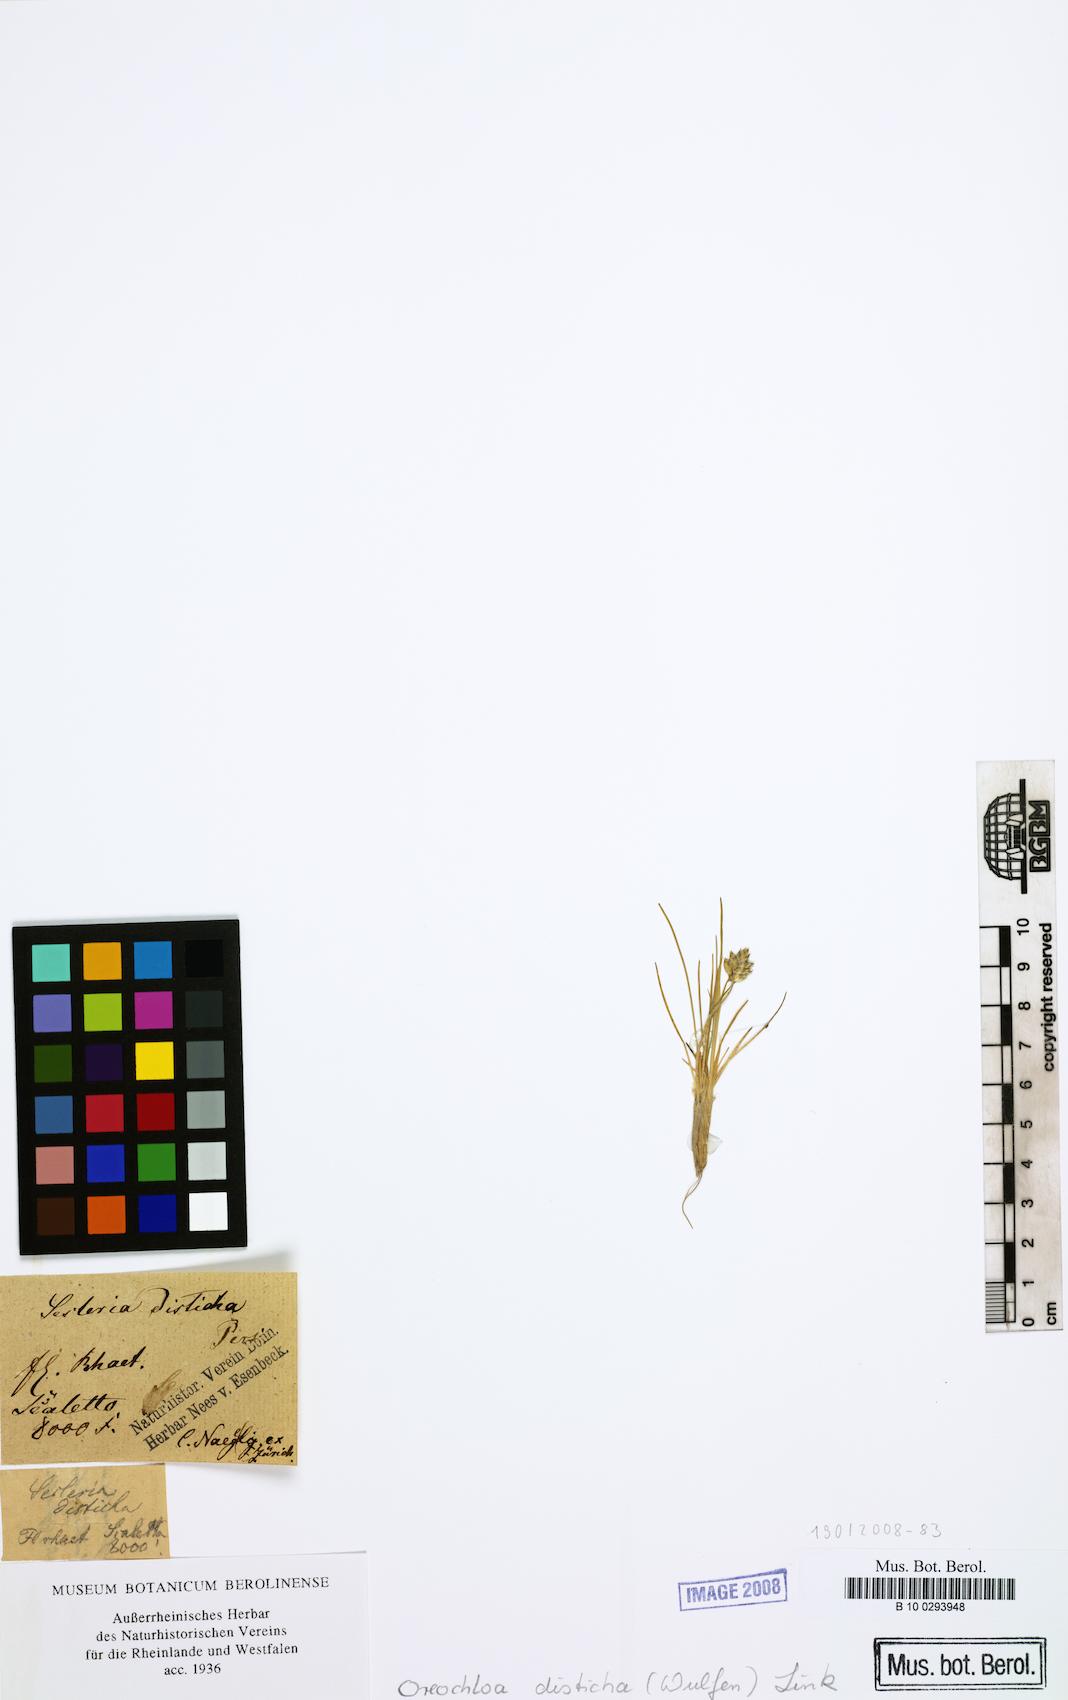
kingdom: Plantae
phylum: Tracheophyta
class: Liliopsida
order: Poales
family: Poaceae
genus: Oreochloa
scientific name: Oreochloa disticha
